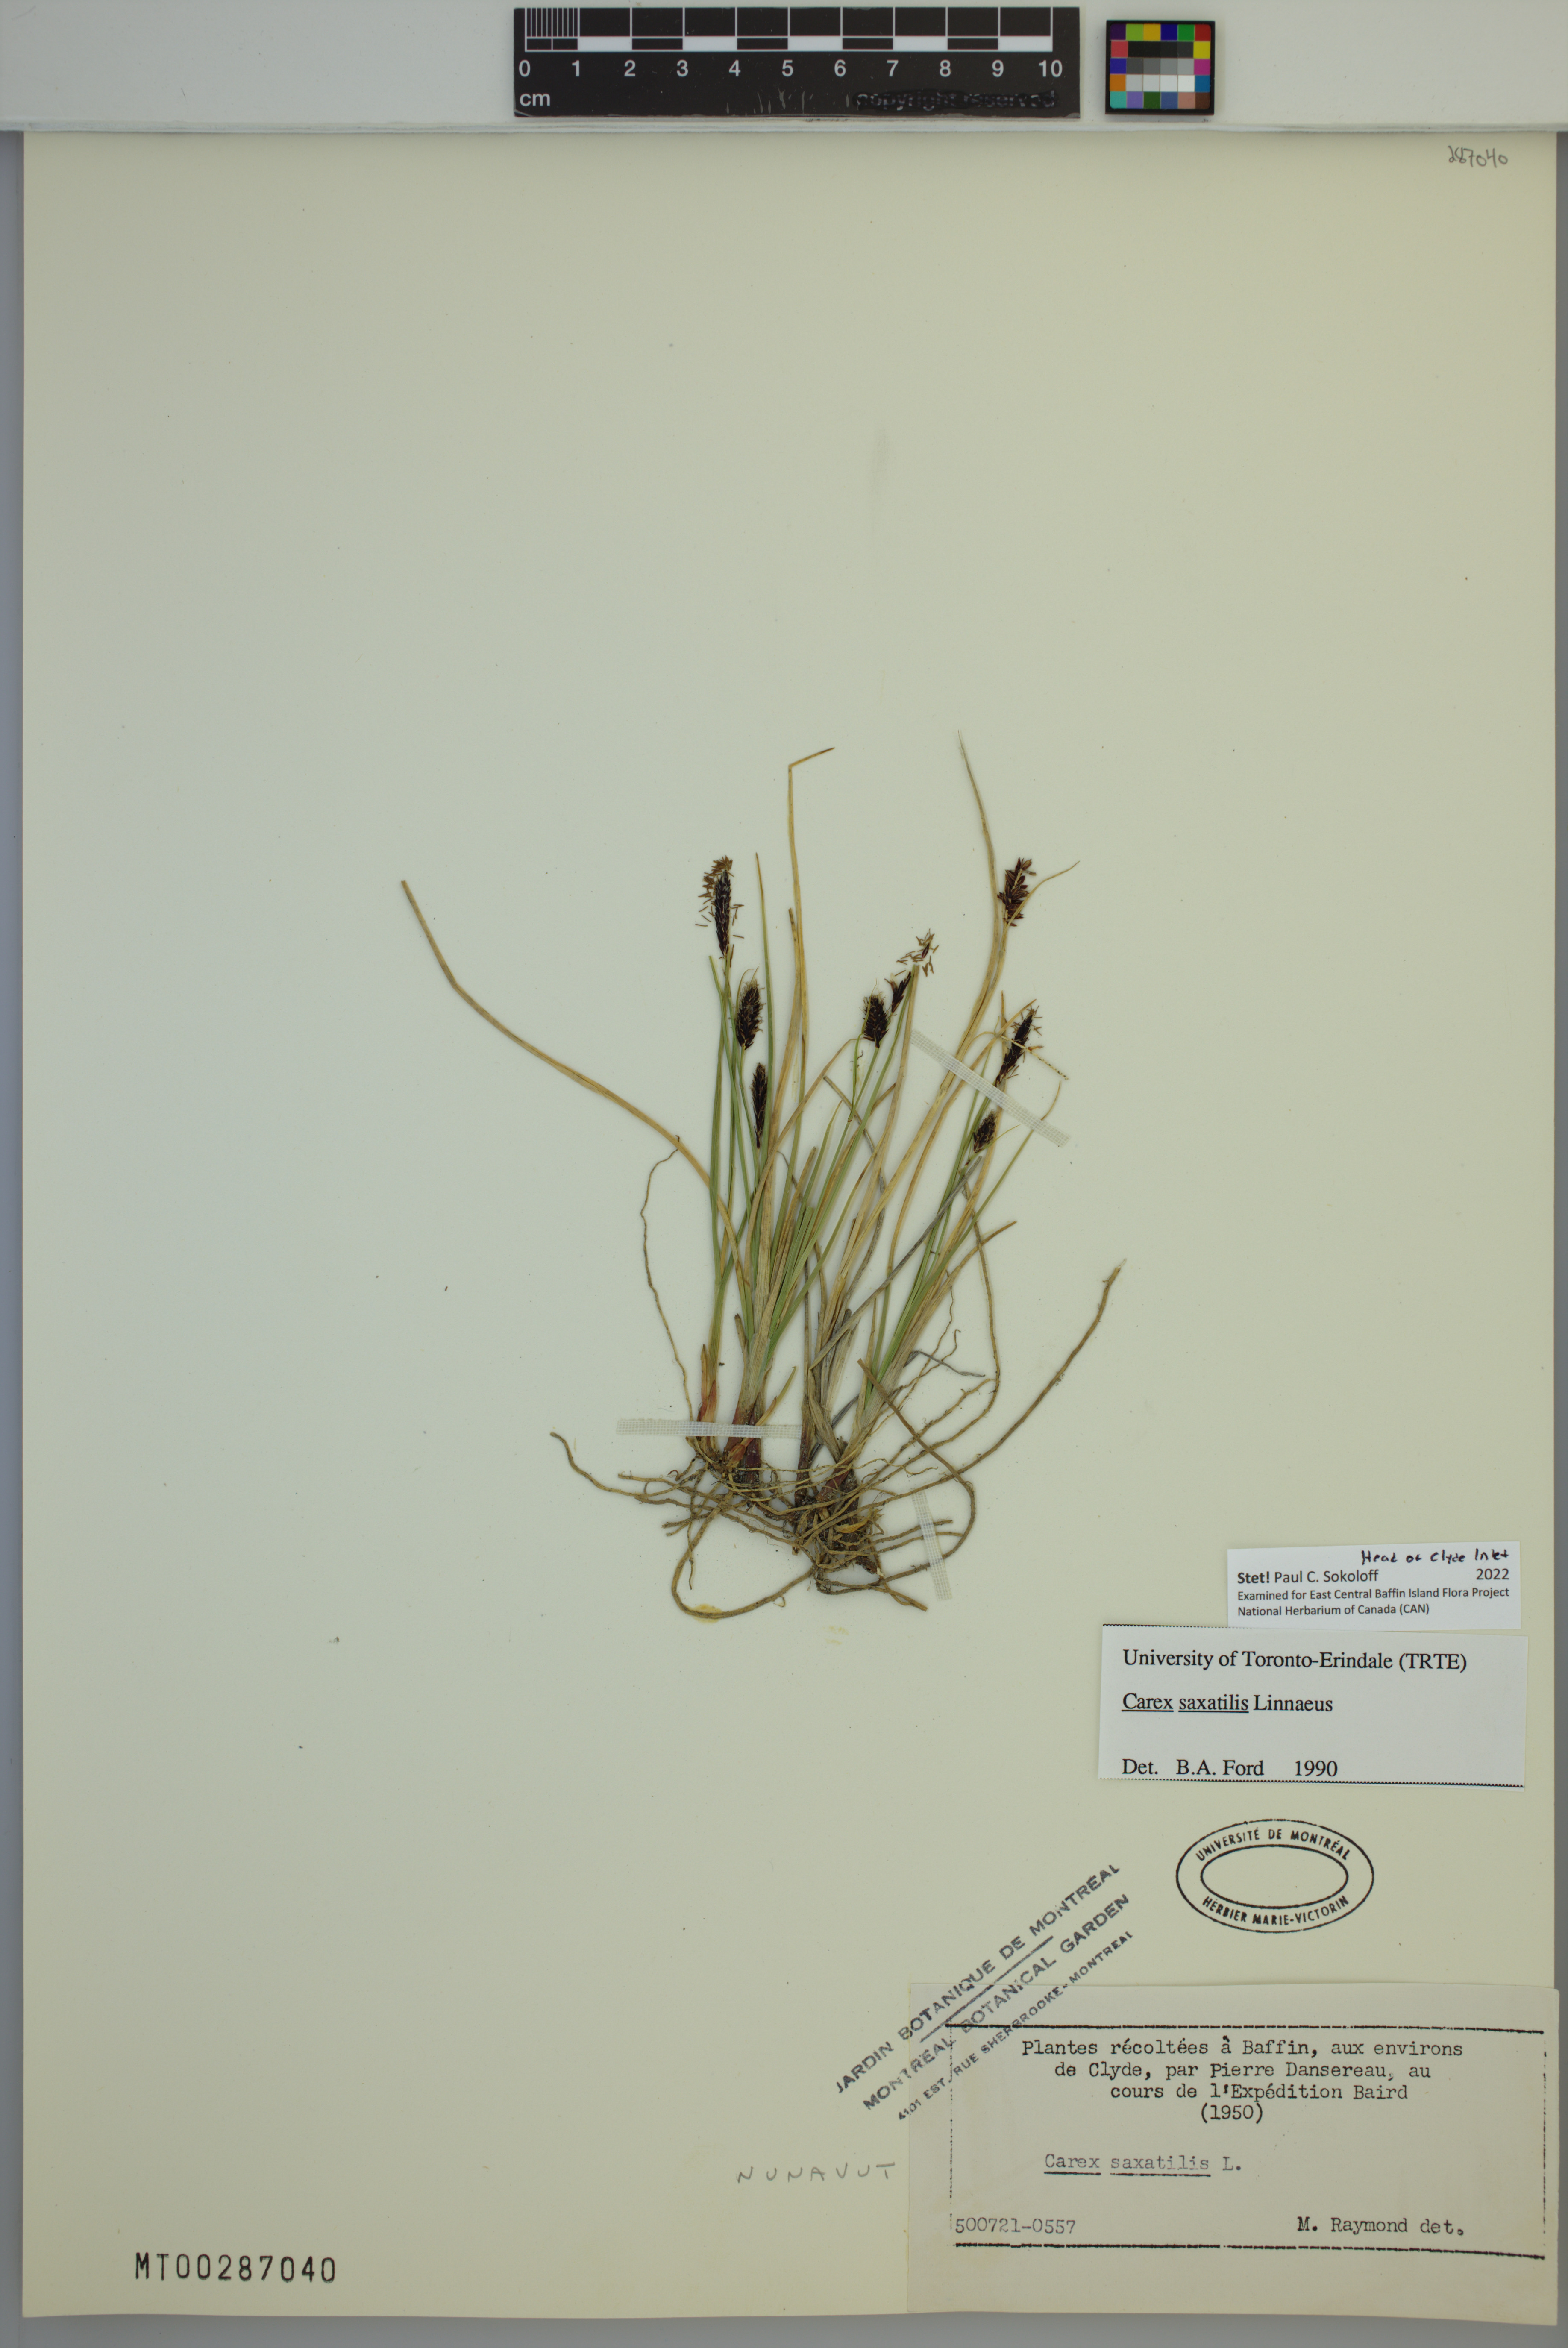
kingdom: Plantae
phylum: Tracheophyta
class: Liliopsida
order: Poales
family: Cyperaceae
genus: Carex
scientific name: Carex saxatilis
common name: Russet sedge
